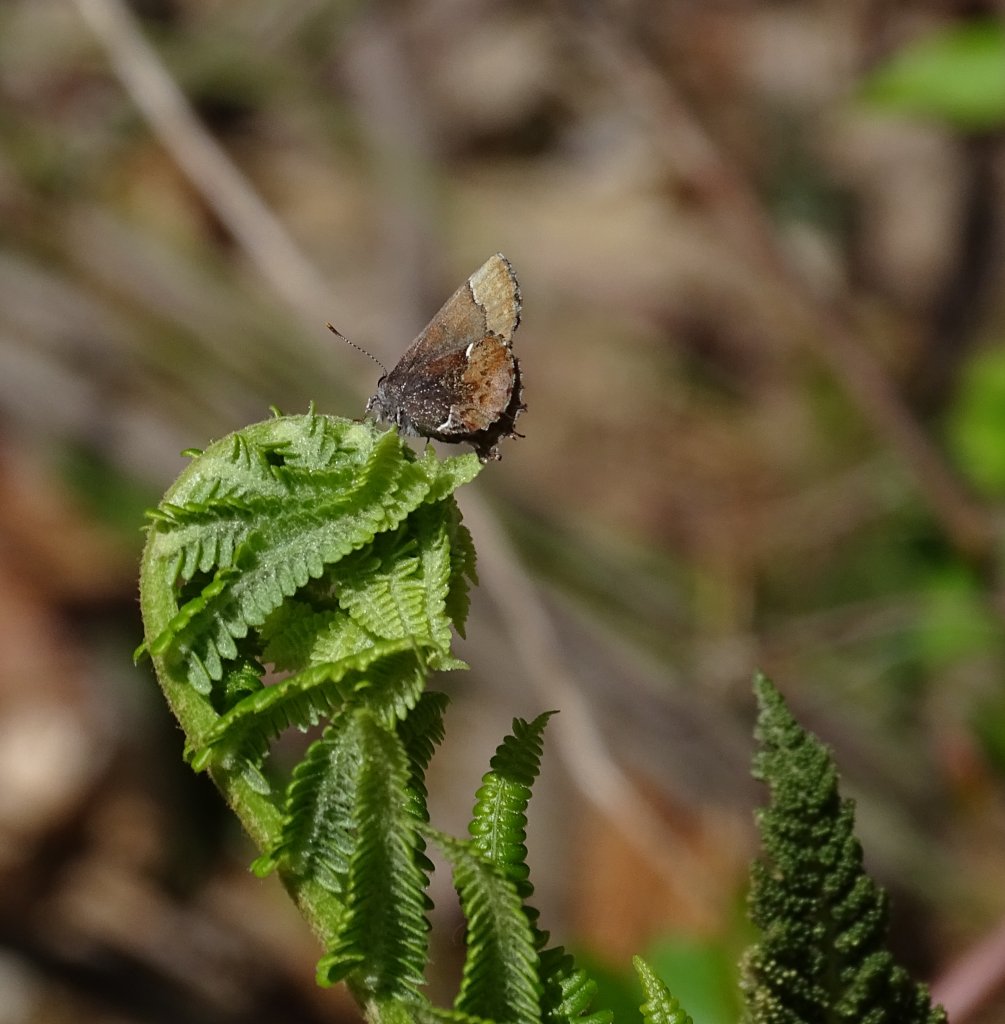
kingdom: Animalia
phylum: Arthropoda
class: Insecta
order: Lepidoptera
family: Lycaenidae
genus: Incisalia
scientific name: Incisalia henrici
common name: Henry's Elfin
